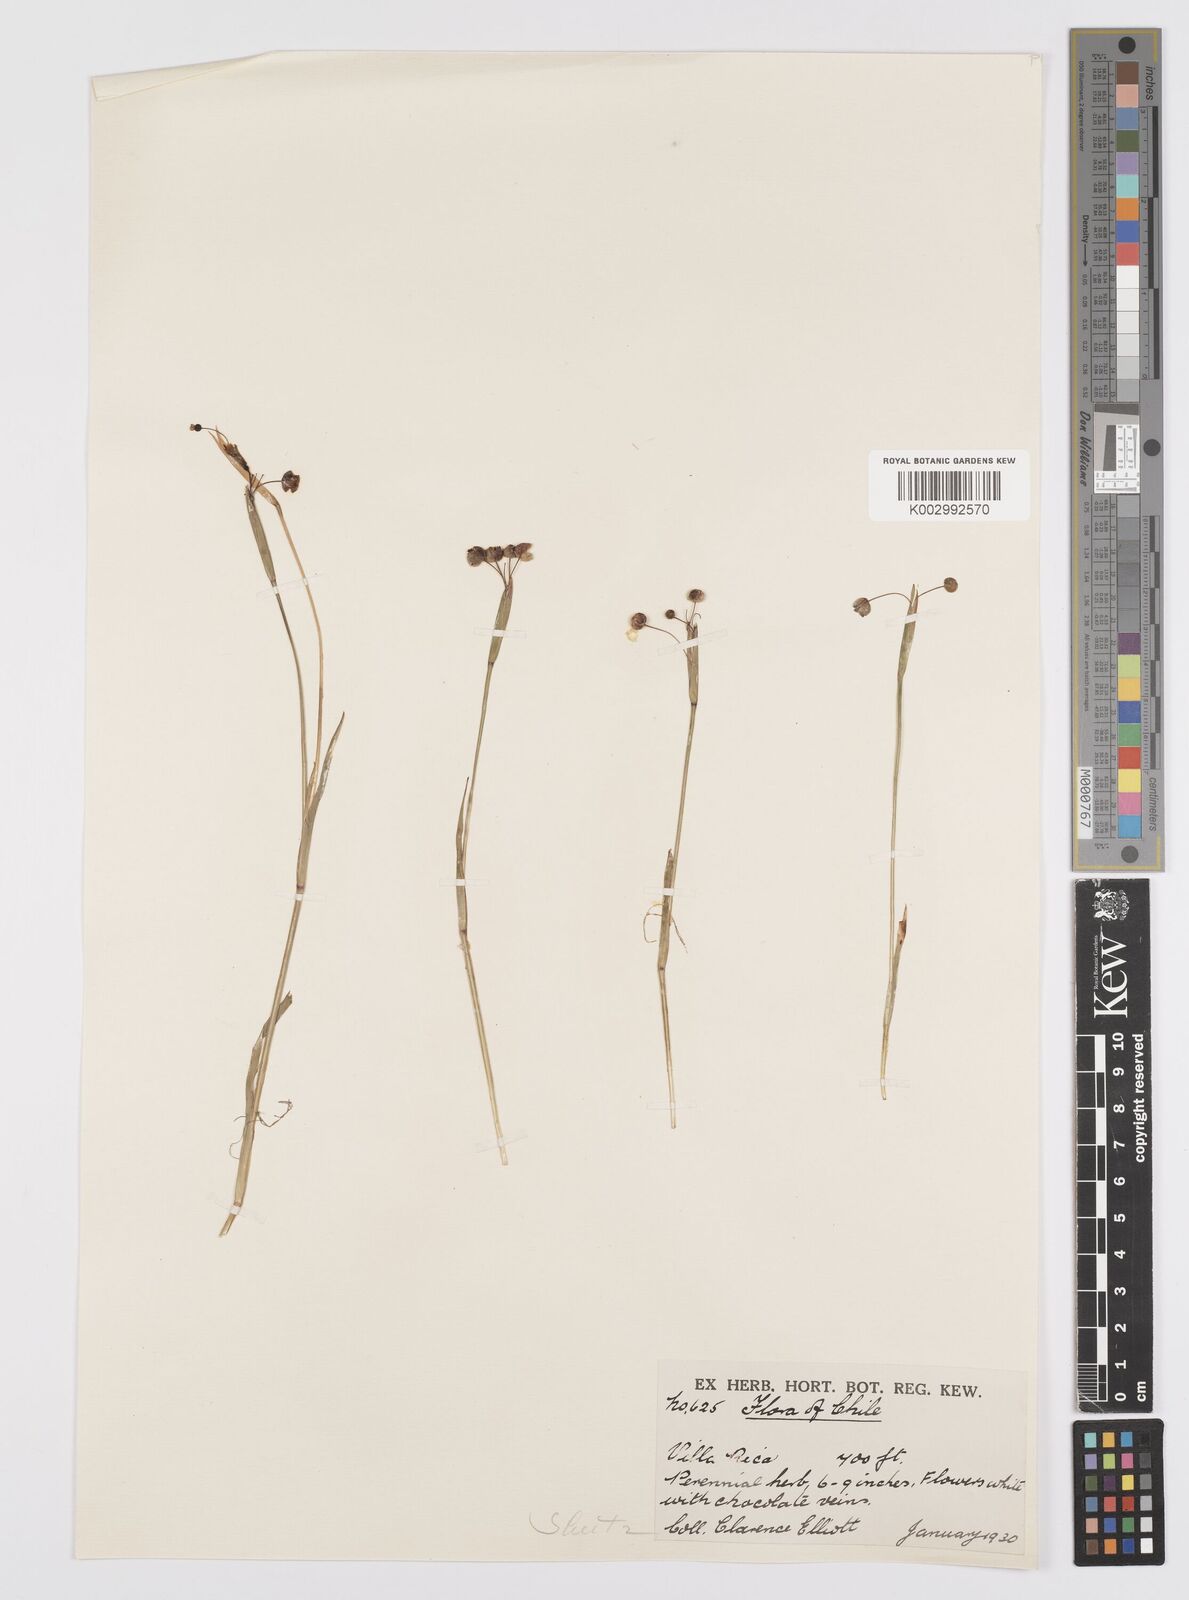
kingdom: Plantae
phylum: Tracheophyta
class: Liliopsida
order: Asparagales
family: Iridaceae
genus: Sisyrinchium
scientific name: Sisyrinchium micranthum
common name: Bermuda pigroot
